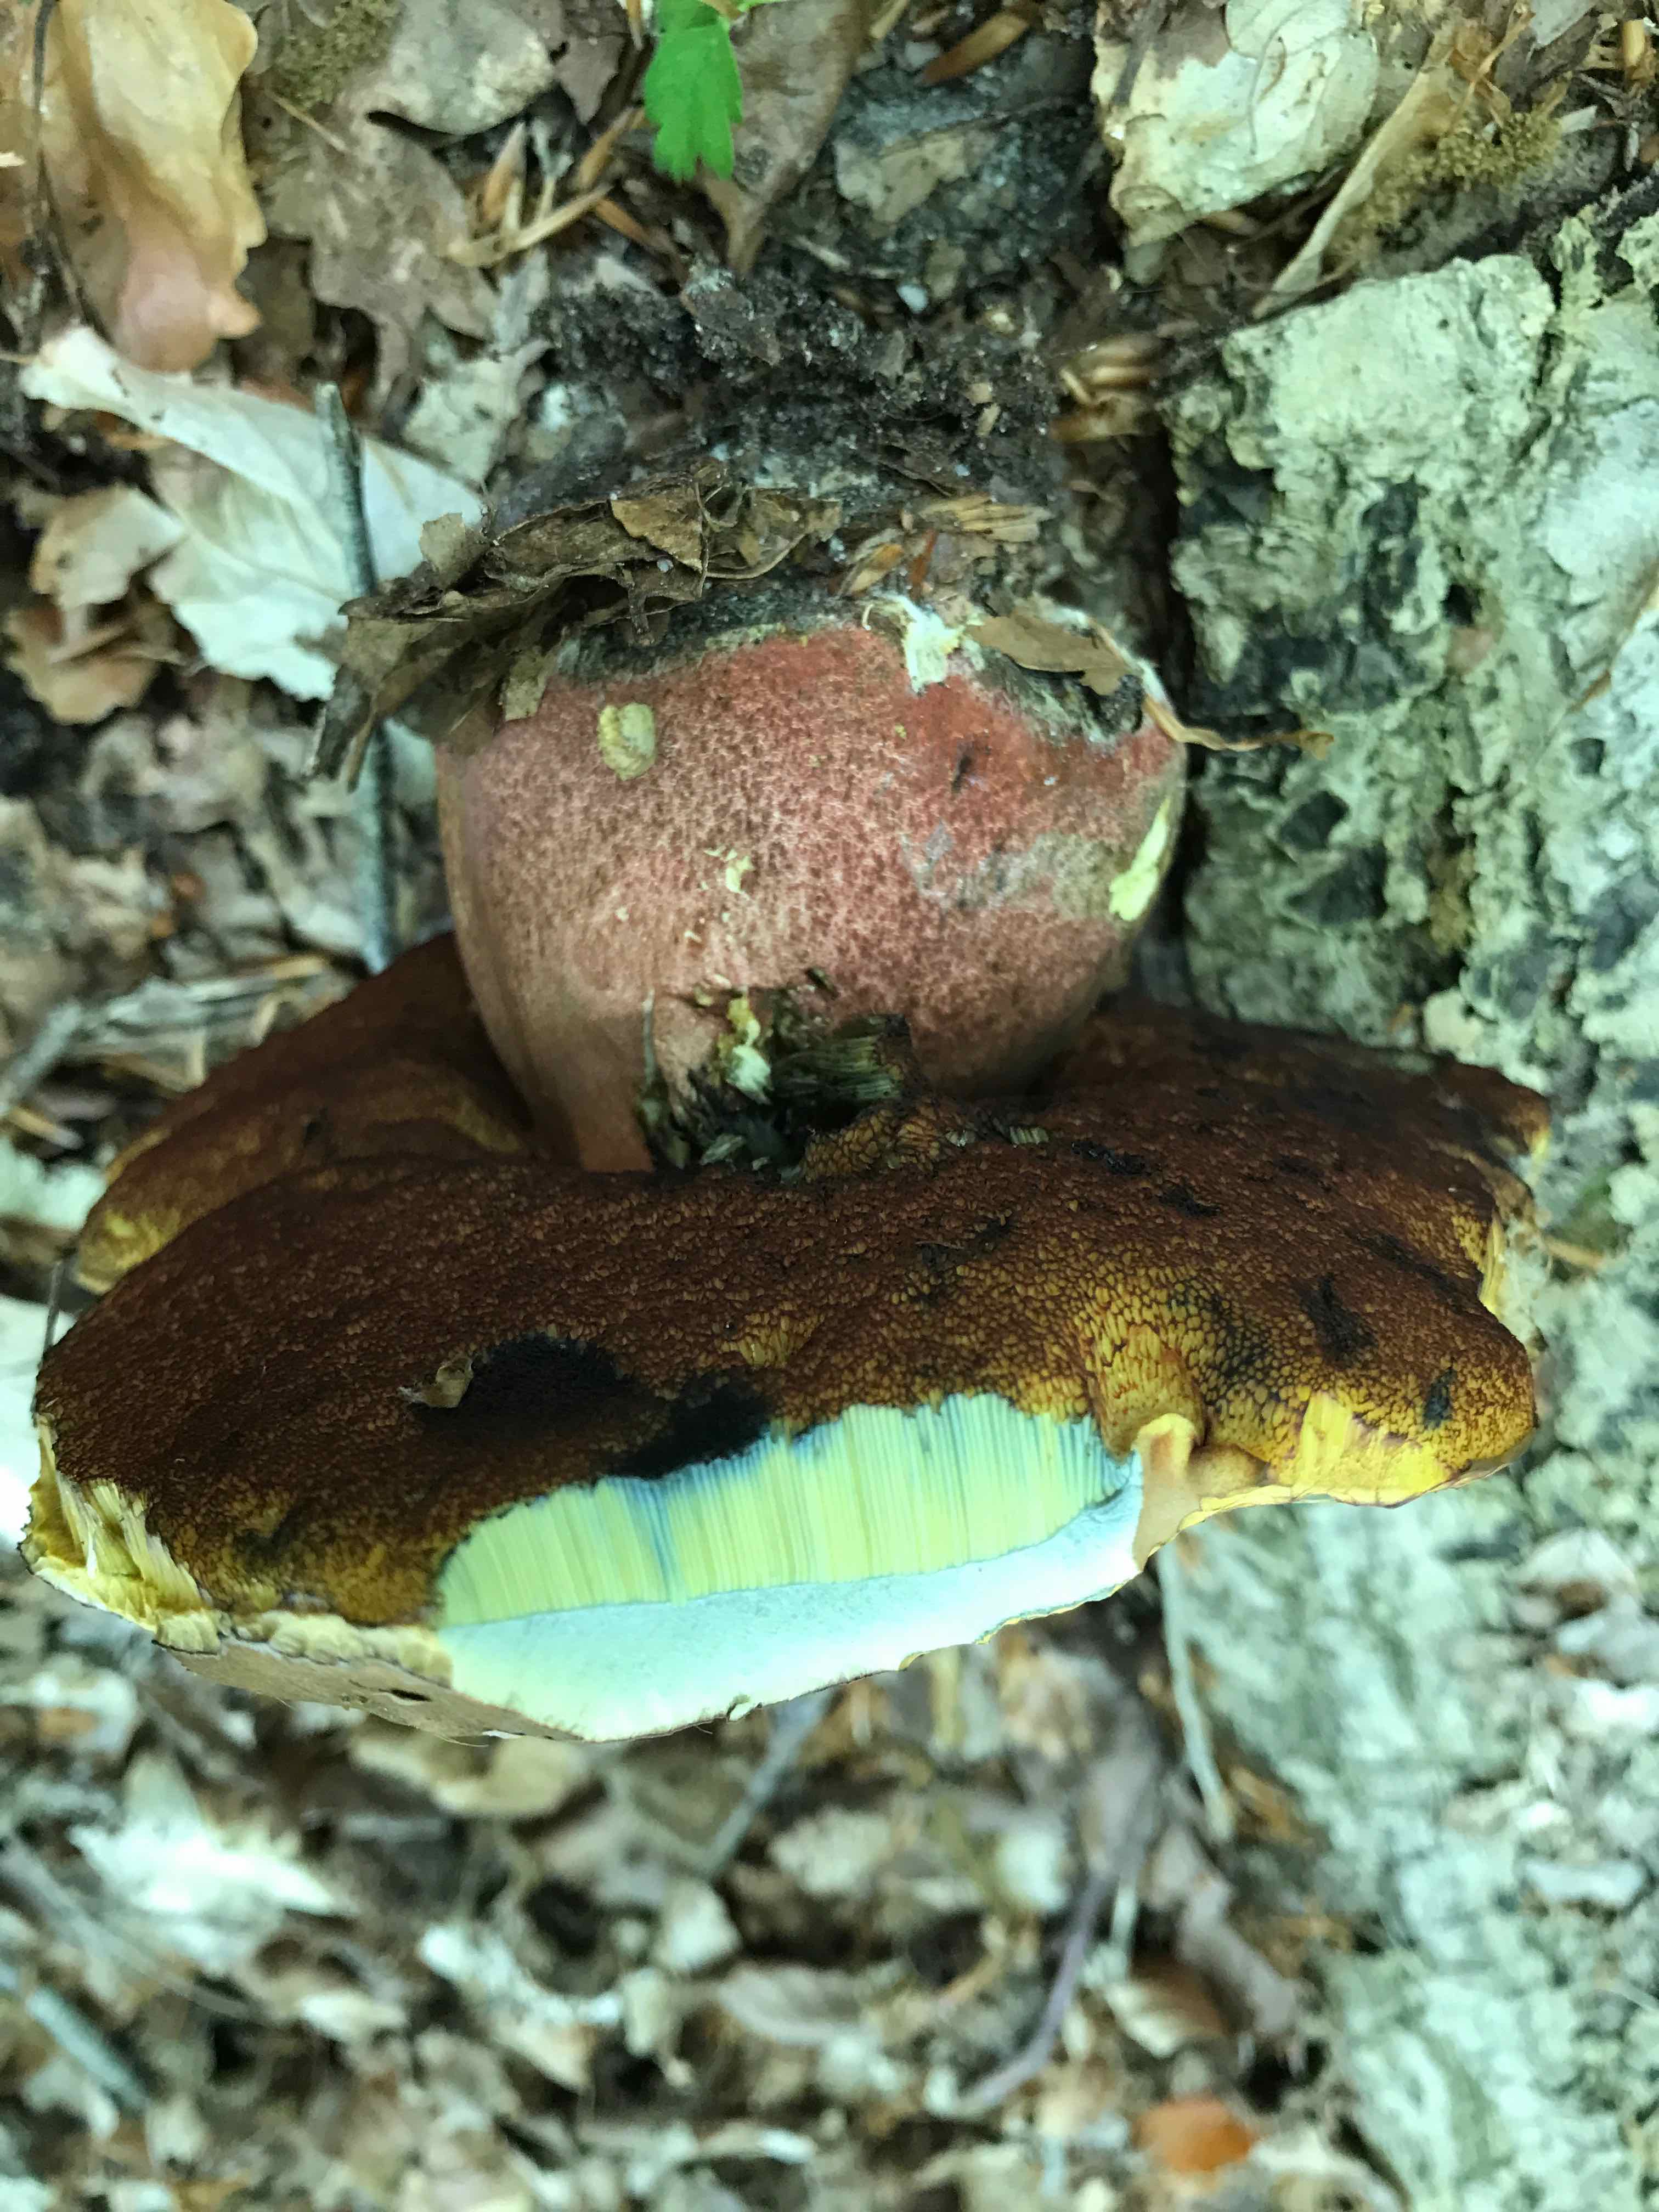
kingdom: Fungi
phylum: Basidiomycota
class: Agaricomycetes
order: Boletales
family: Boletaceae
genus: Neoboletus
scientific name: Neoboletus erythropus
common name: punktstokket indigorørhat
